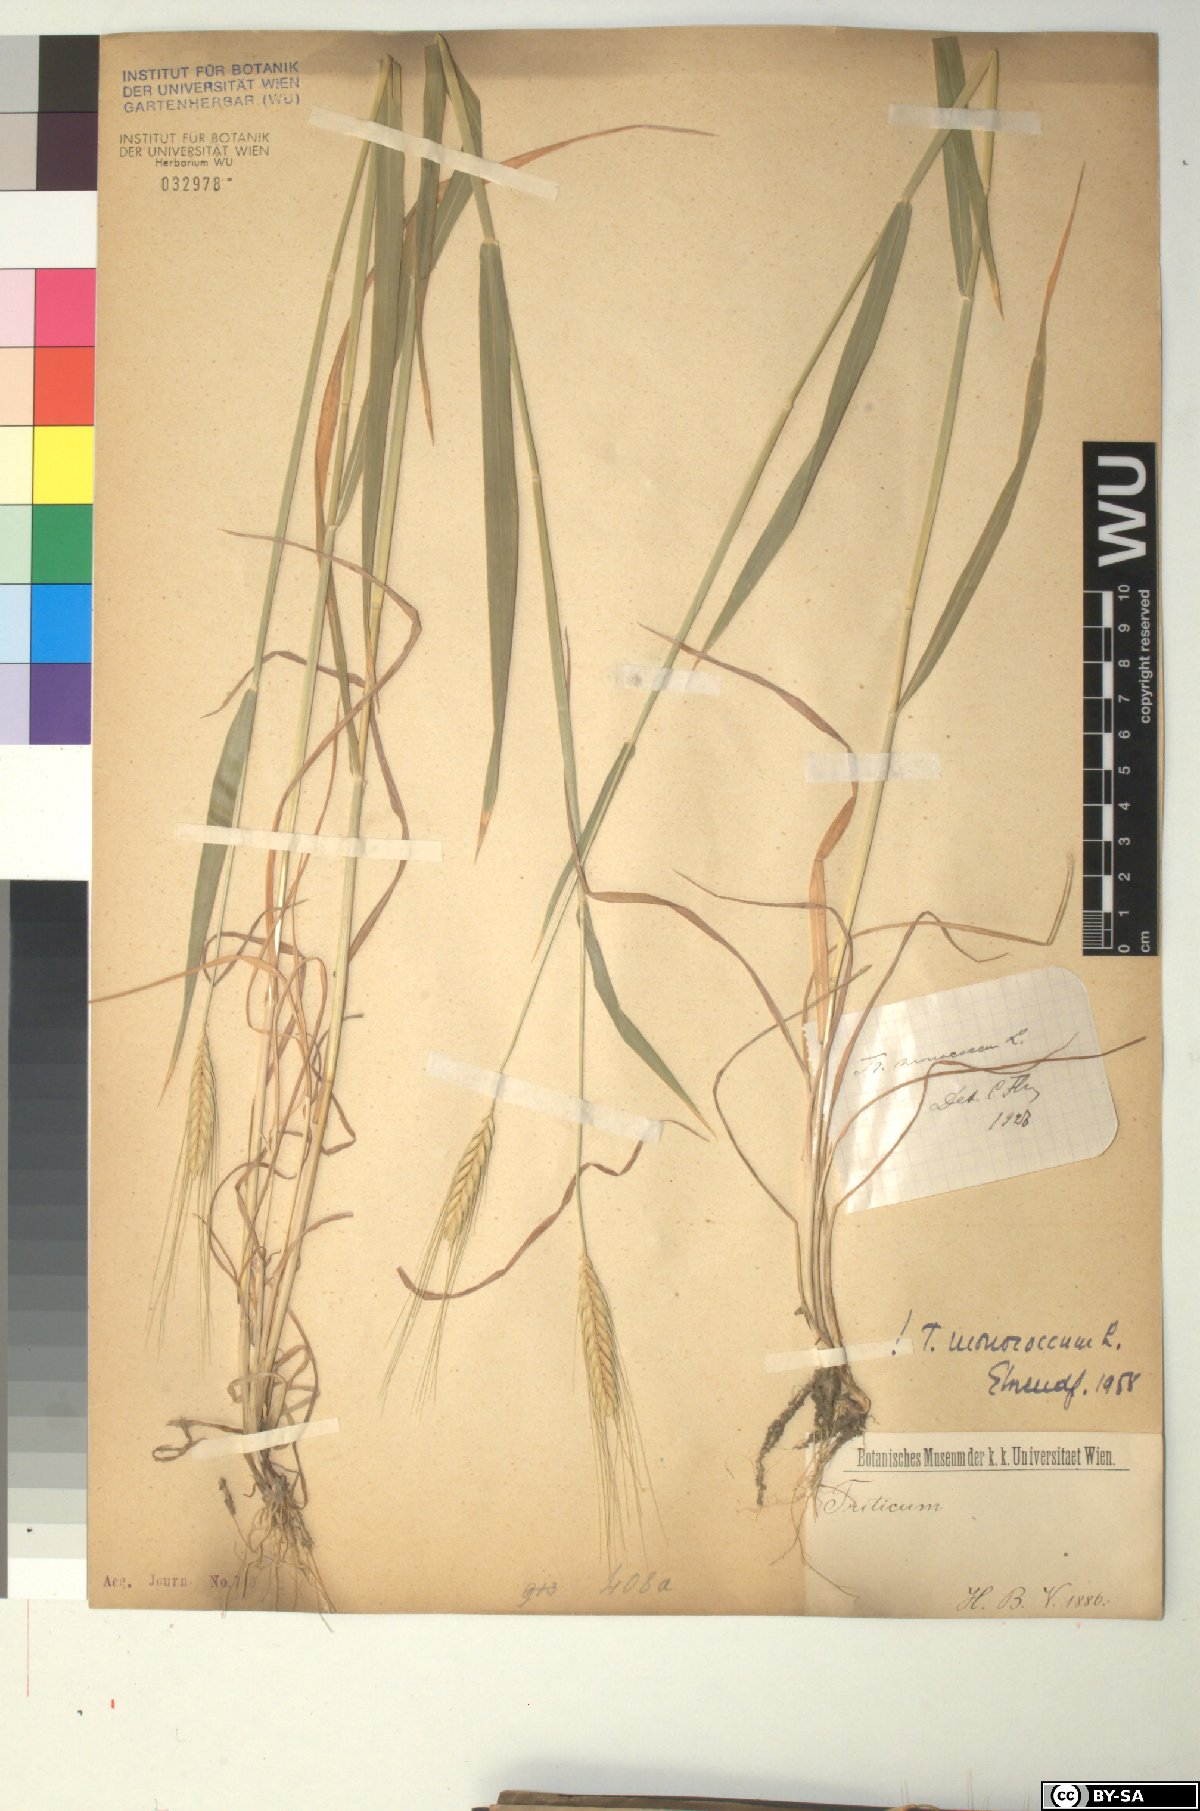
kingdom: Plantae
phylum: Tracheophyta
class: Liliopsida
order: Poales
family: Poaceae
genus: Triticum
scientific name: Triticum monococcum
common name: Einkorn
